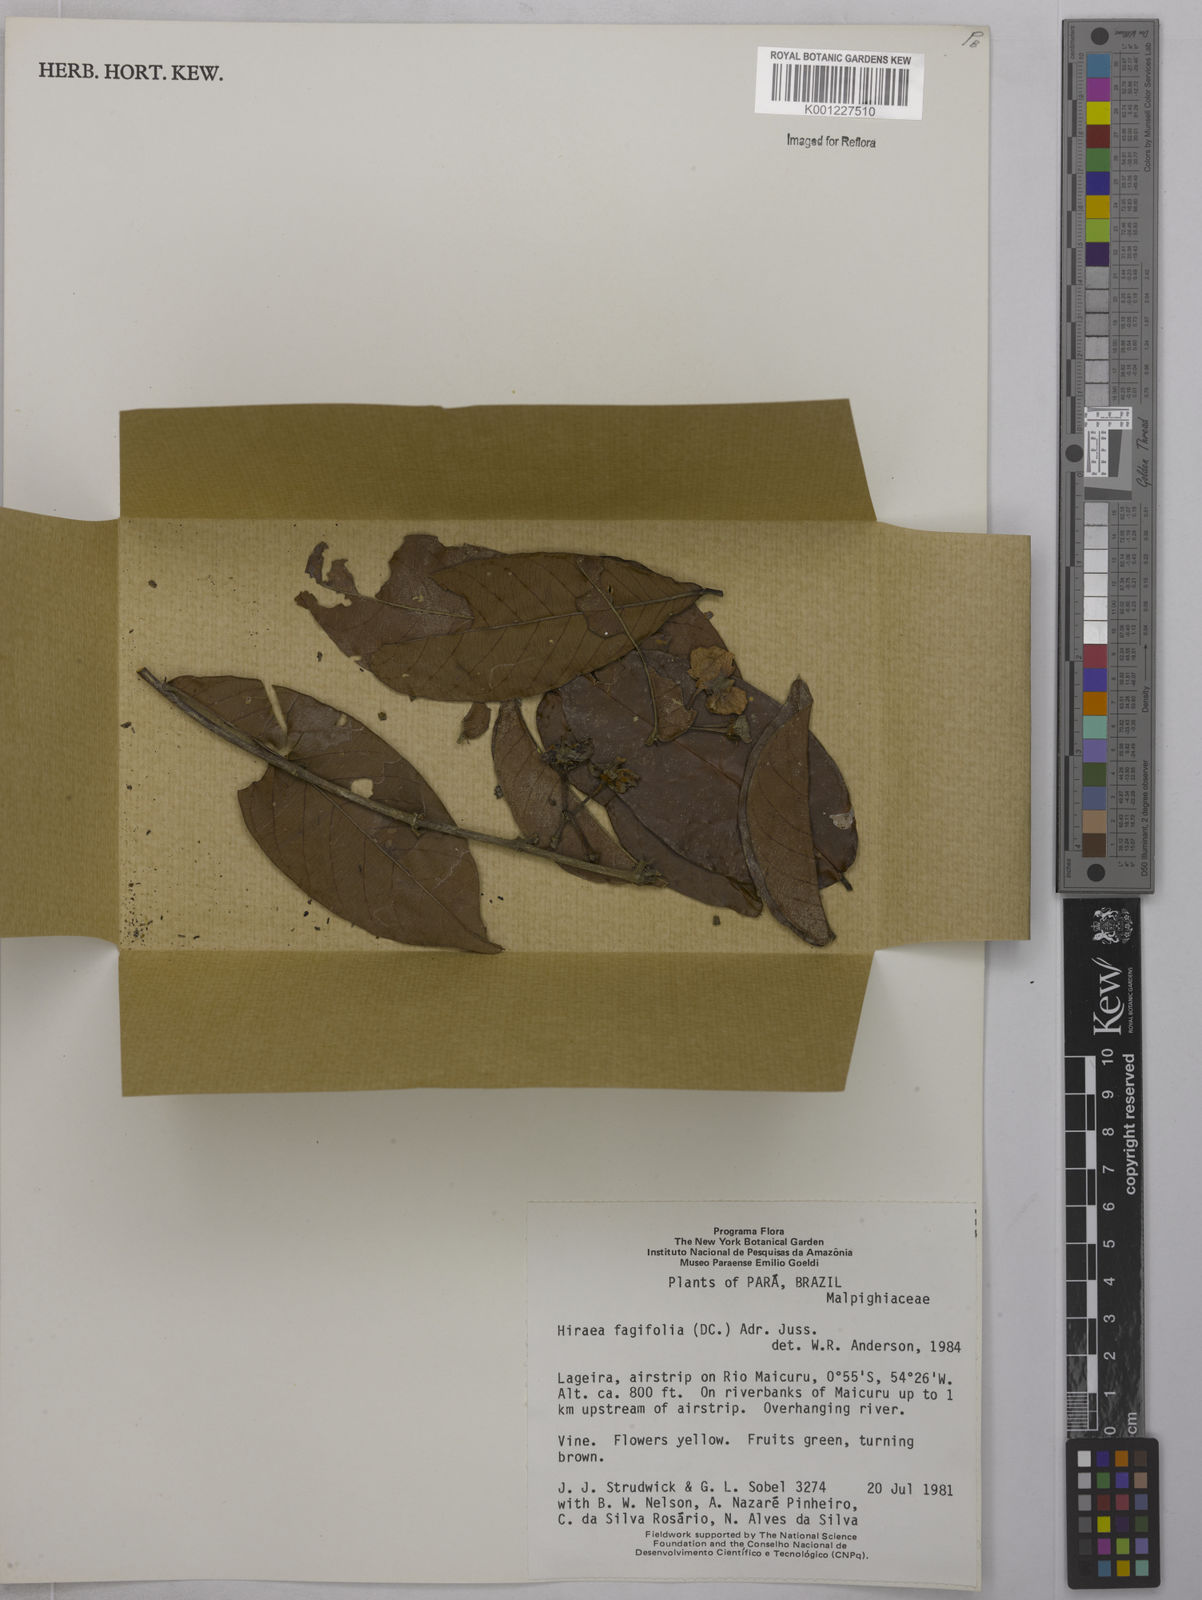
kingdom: Plantae
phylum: Tracheophyta
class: Magnoliopsida
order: Malpighiales
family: Malpighiaceae
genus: Hiraea
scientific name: Hiraea fagifolia
